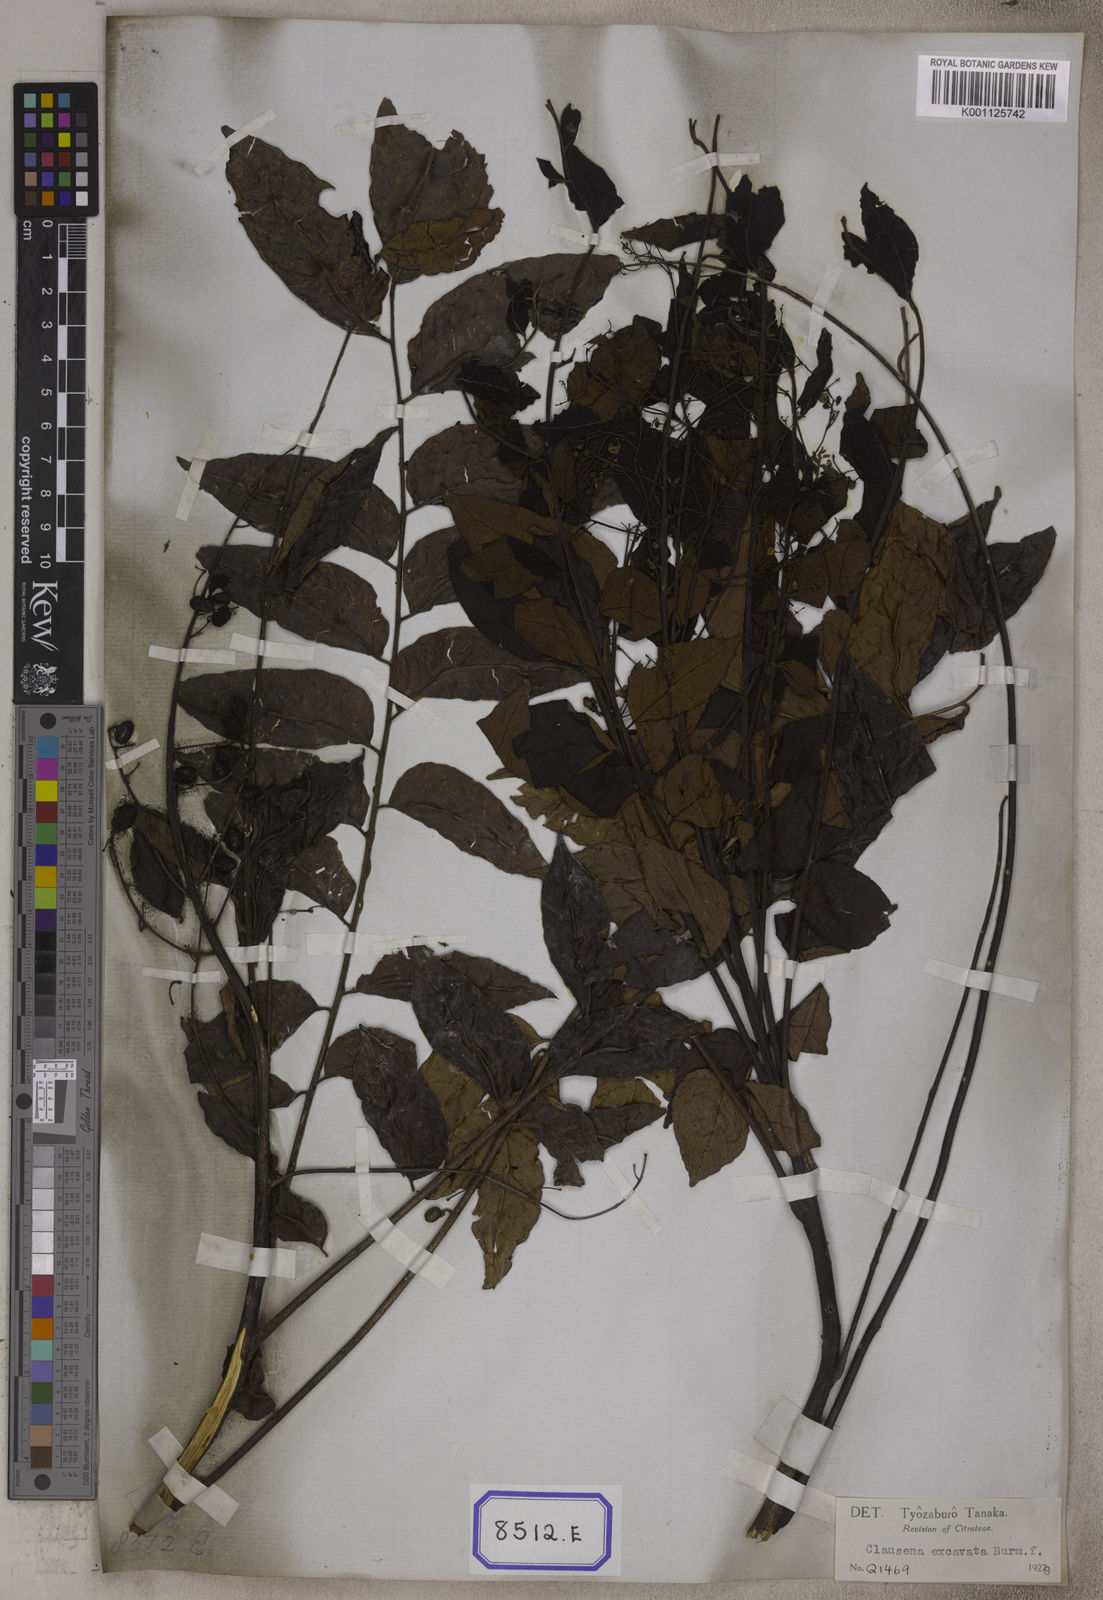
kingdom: Plantae
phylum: Tracheophyta
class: Magnoliopsida
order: Sapindales
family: Rutaceae
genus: Clausena
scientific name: Clausena
